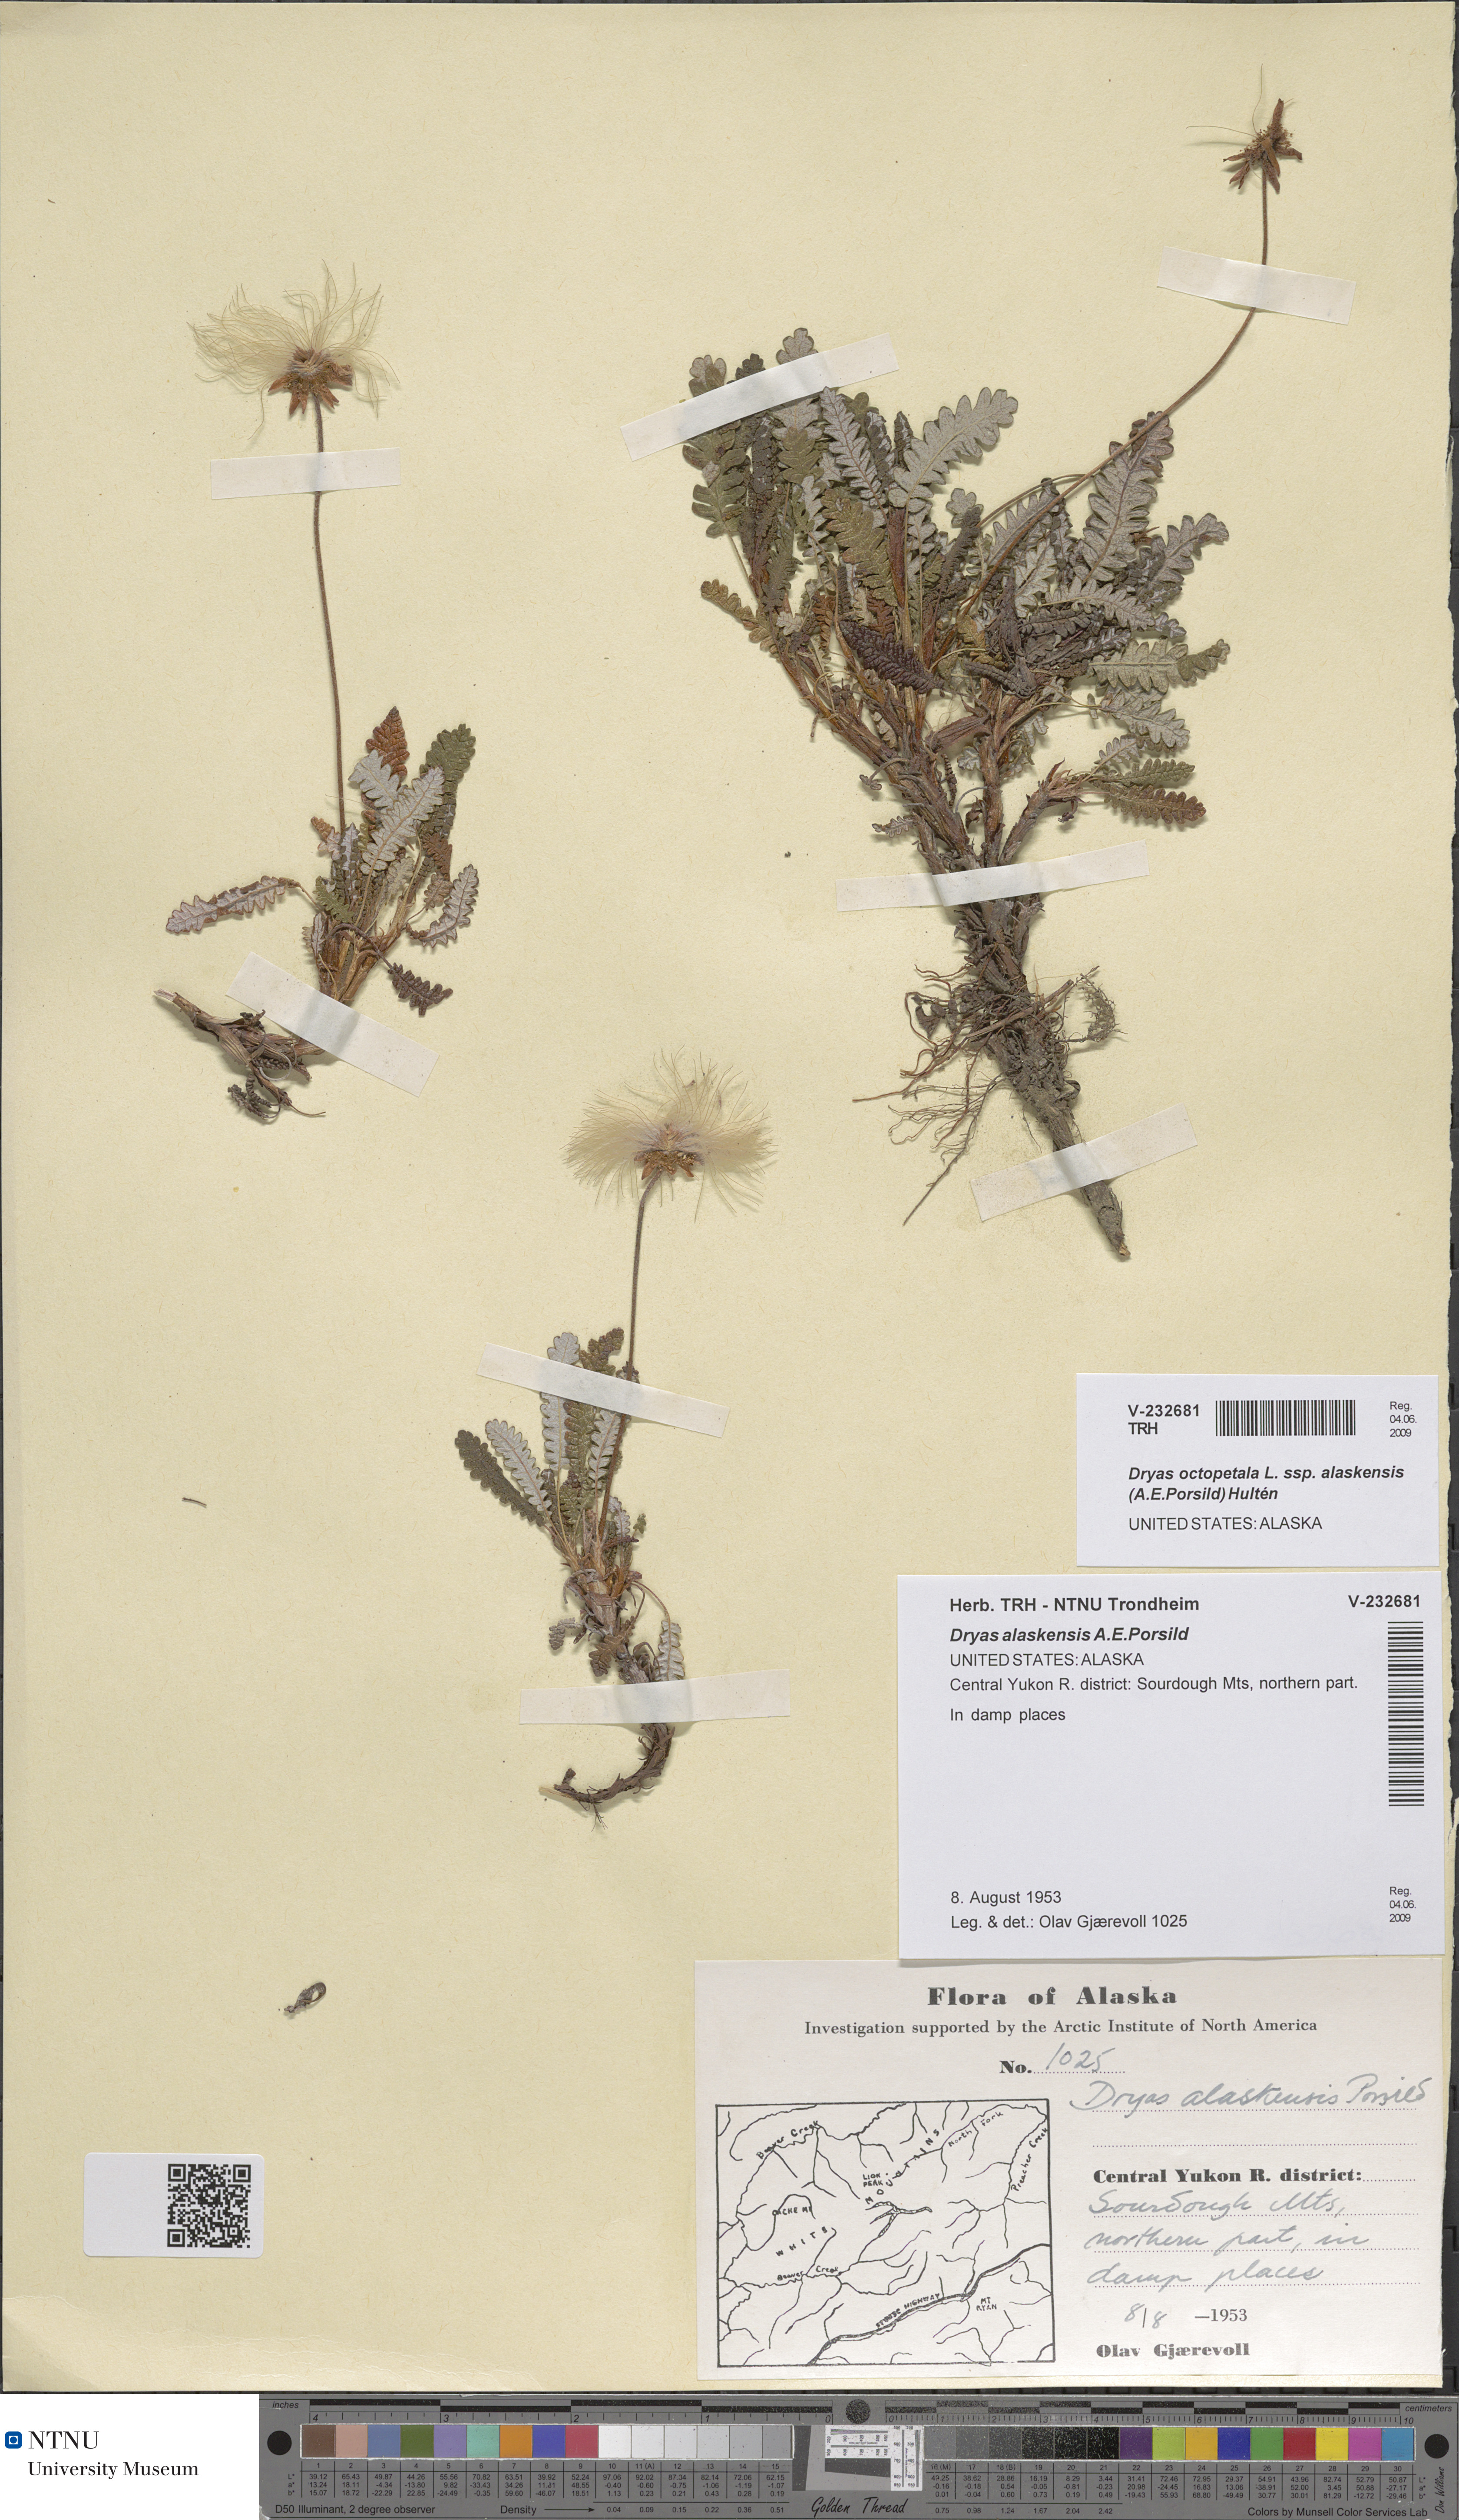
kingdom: Plantae
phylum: Tracheophyta
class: Magnoliopsida
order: Rosales
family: Rosaceae
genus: Dryas
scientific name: Dryas octopetala
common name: Eight-petal mountain-avens
